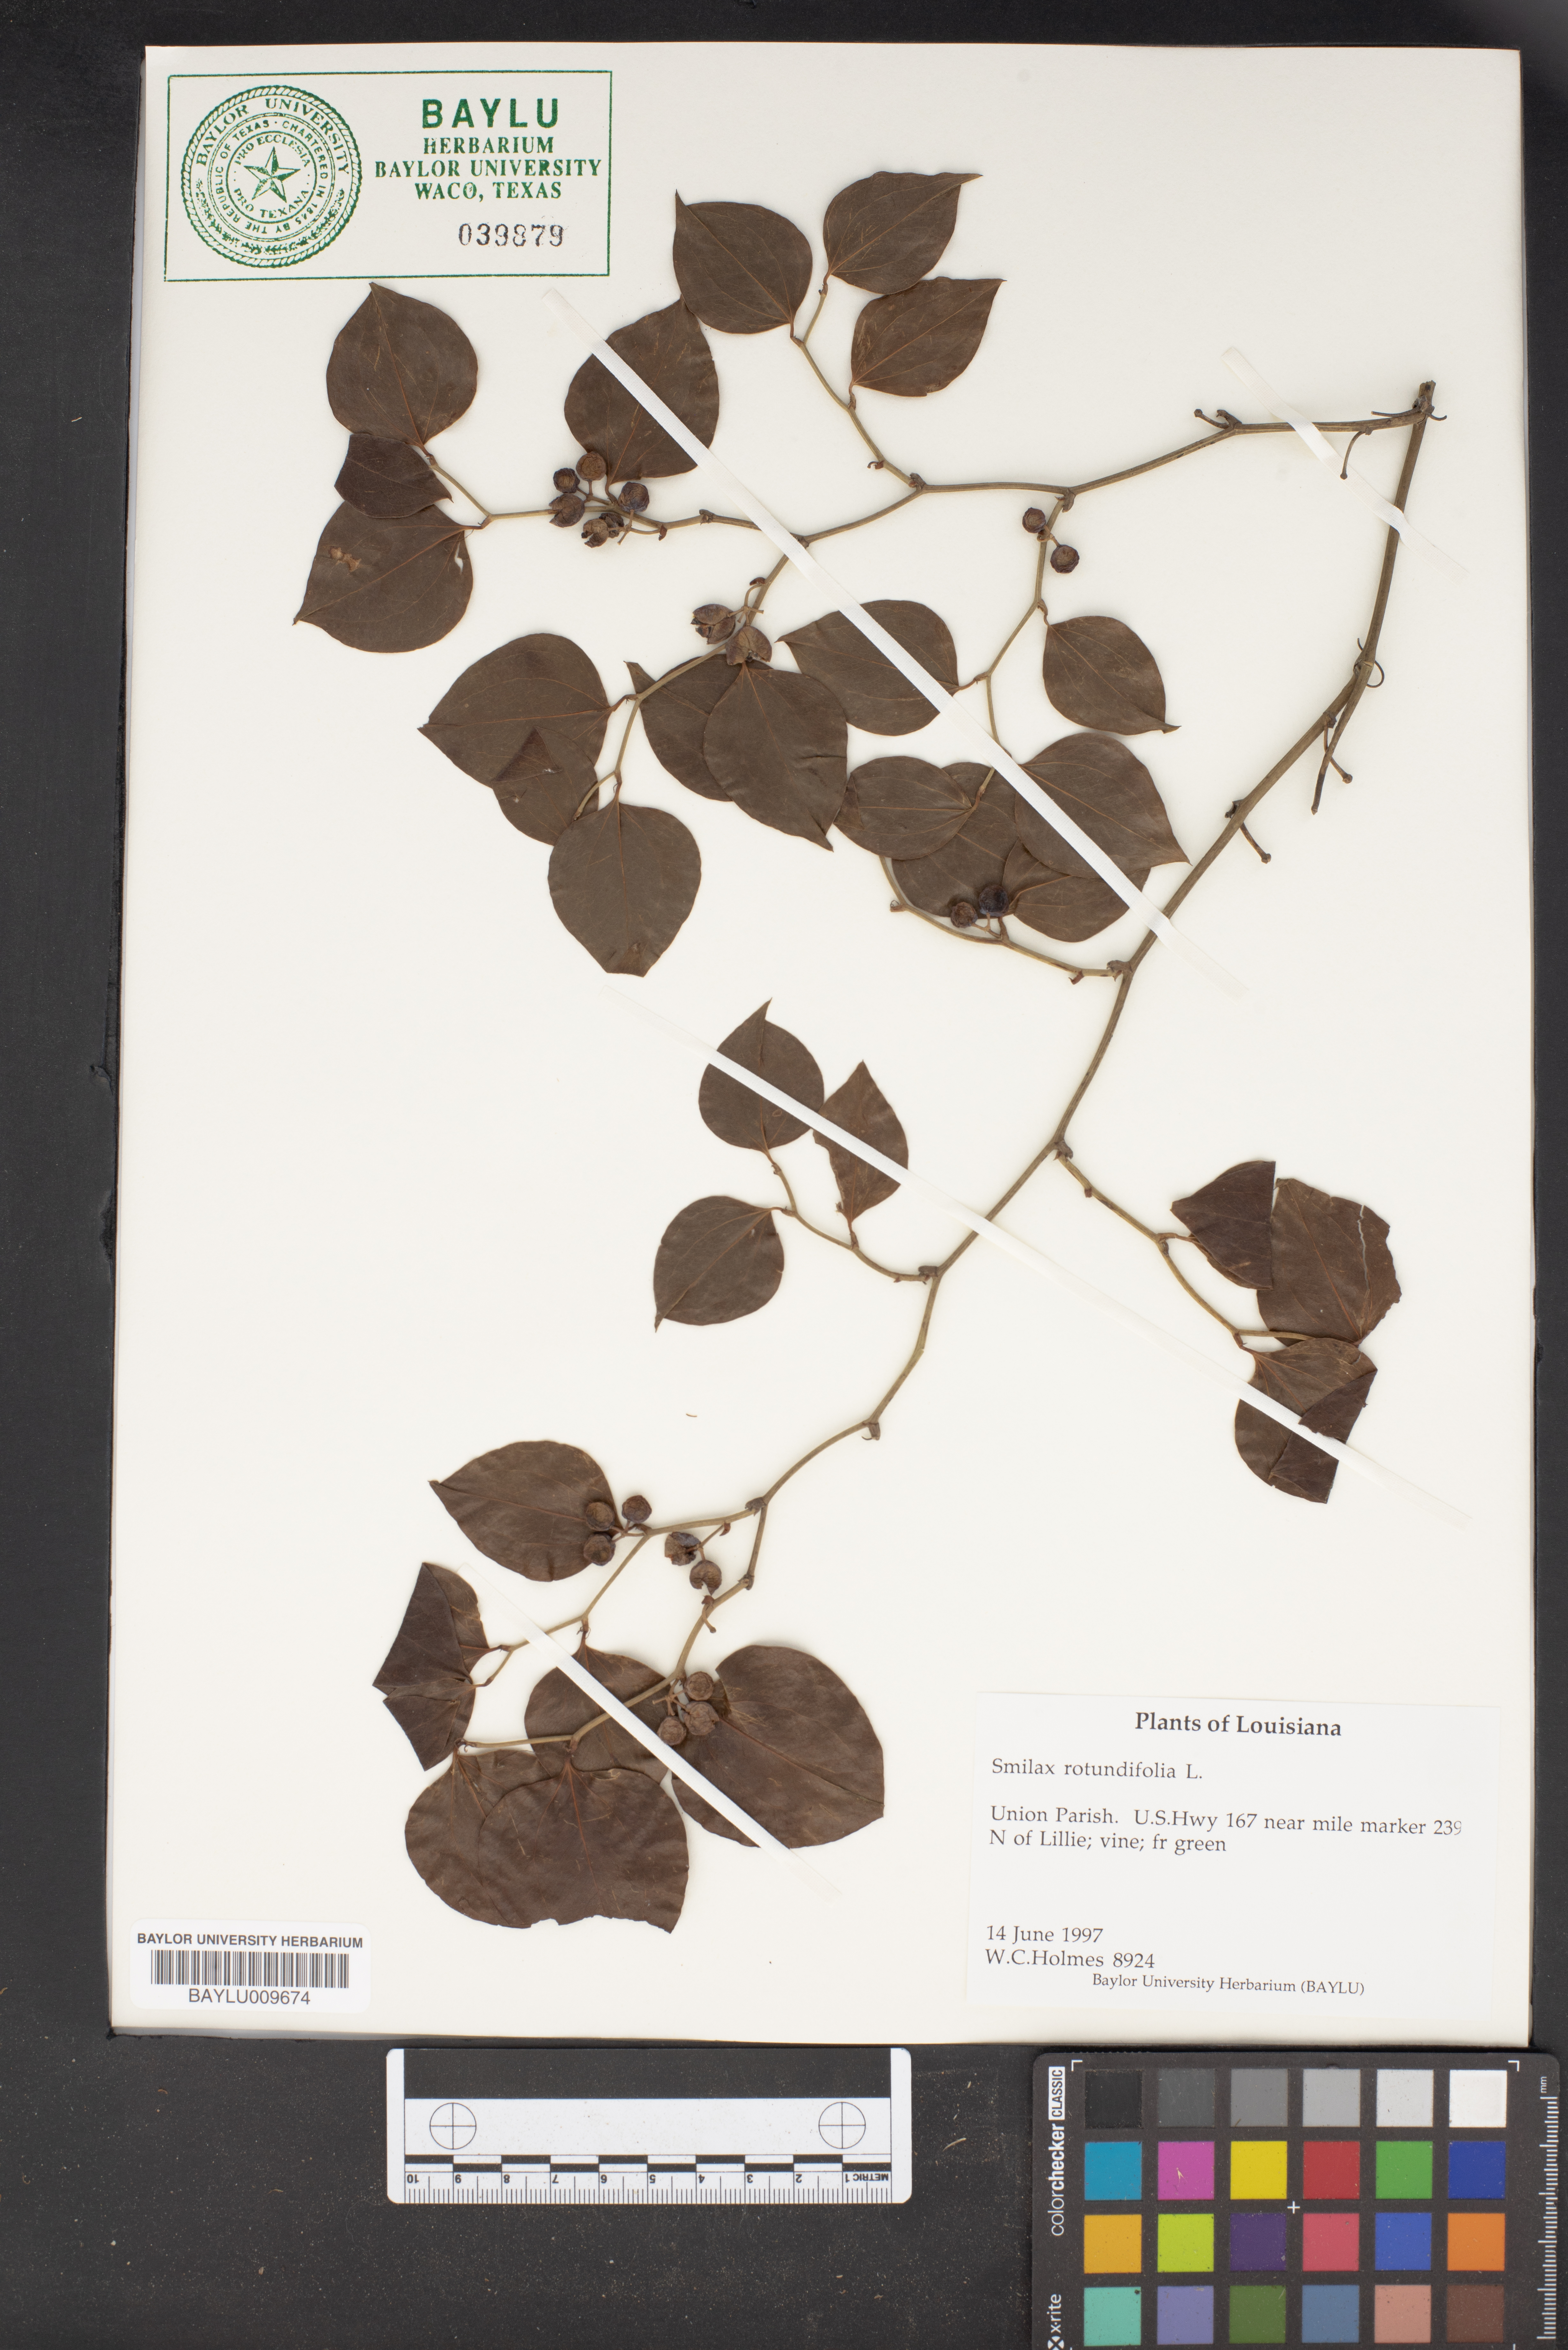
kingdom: Plantae
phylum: Tracheophyta
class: Liliopsida
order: Liliales
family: Smilacaceae
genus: Smilax
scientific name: Smilax rotundifolia
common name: Bullbriar
